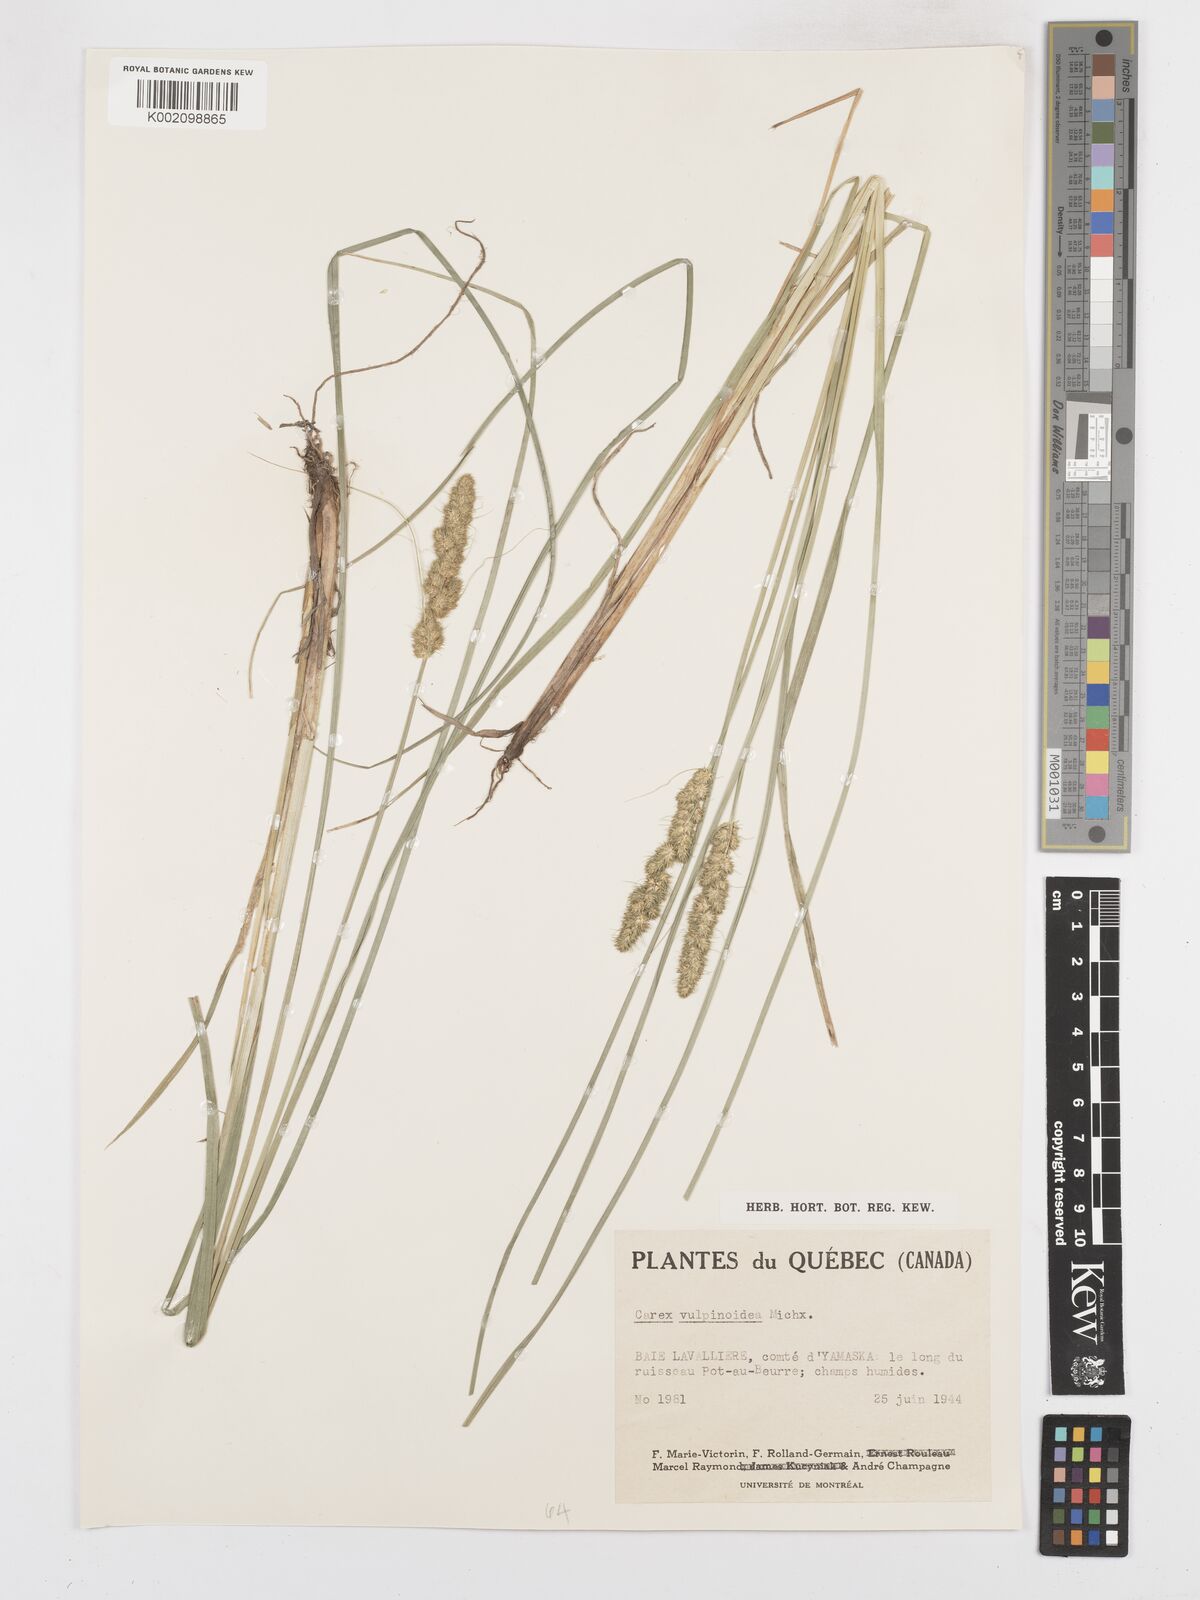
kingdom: Plantae
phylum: Tracheophyta
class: Liliopsida
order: Poales
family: Cyperaceae
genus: Carex
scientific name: Carex vulpinoidea
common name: American fox-sedge
